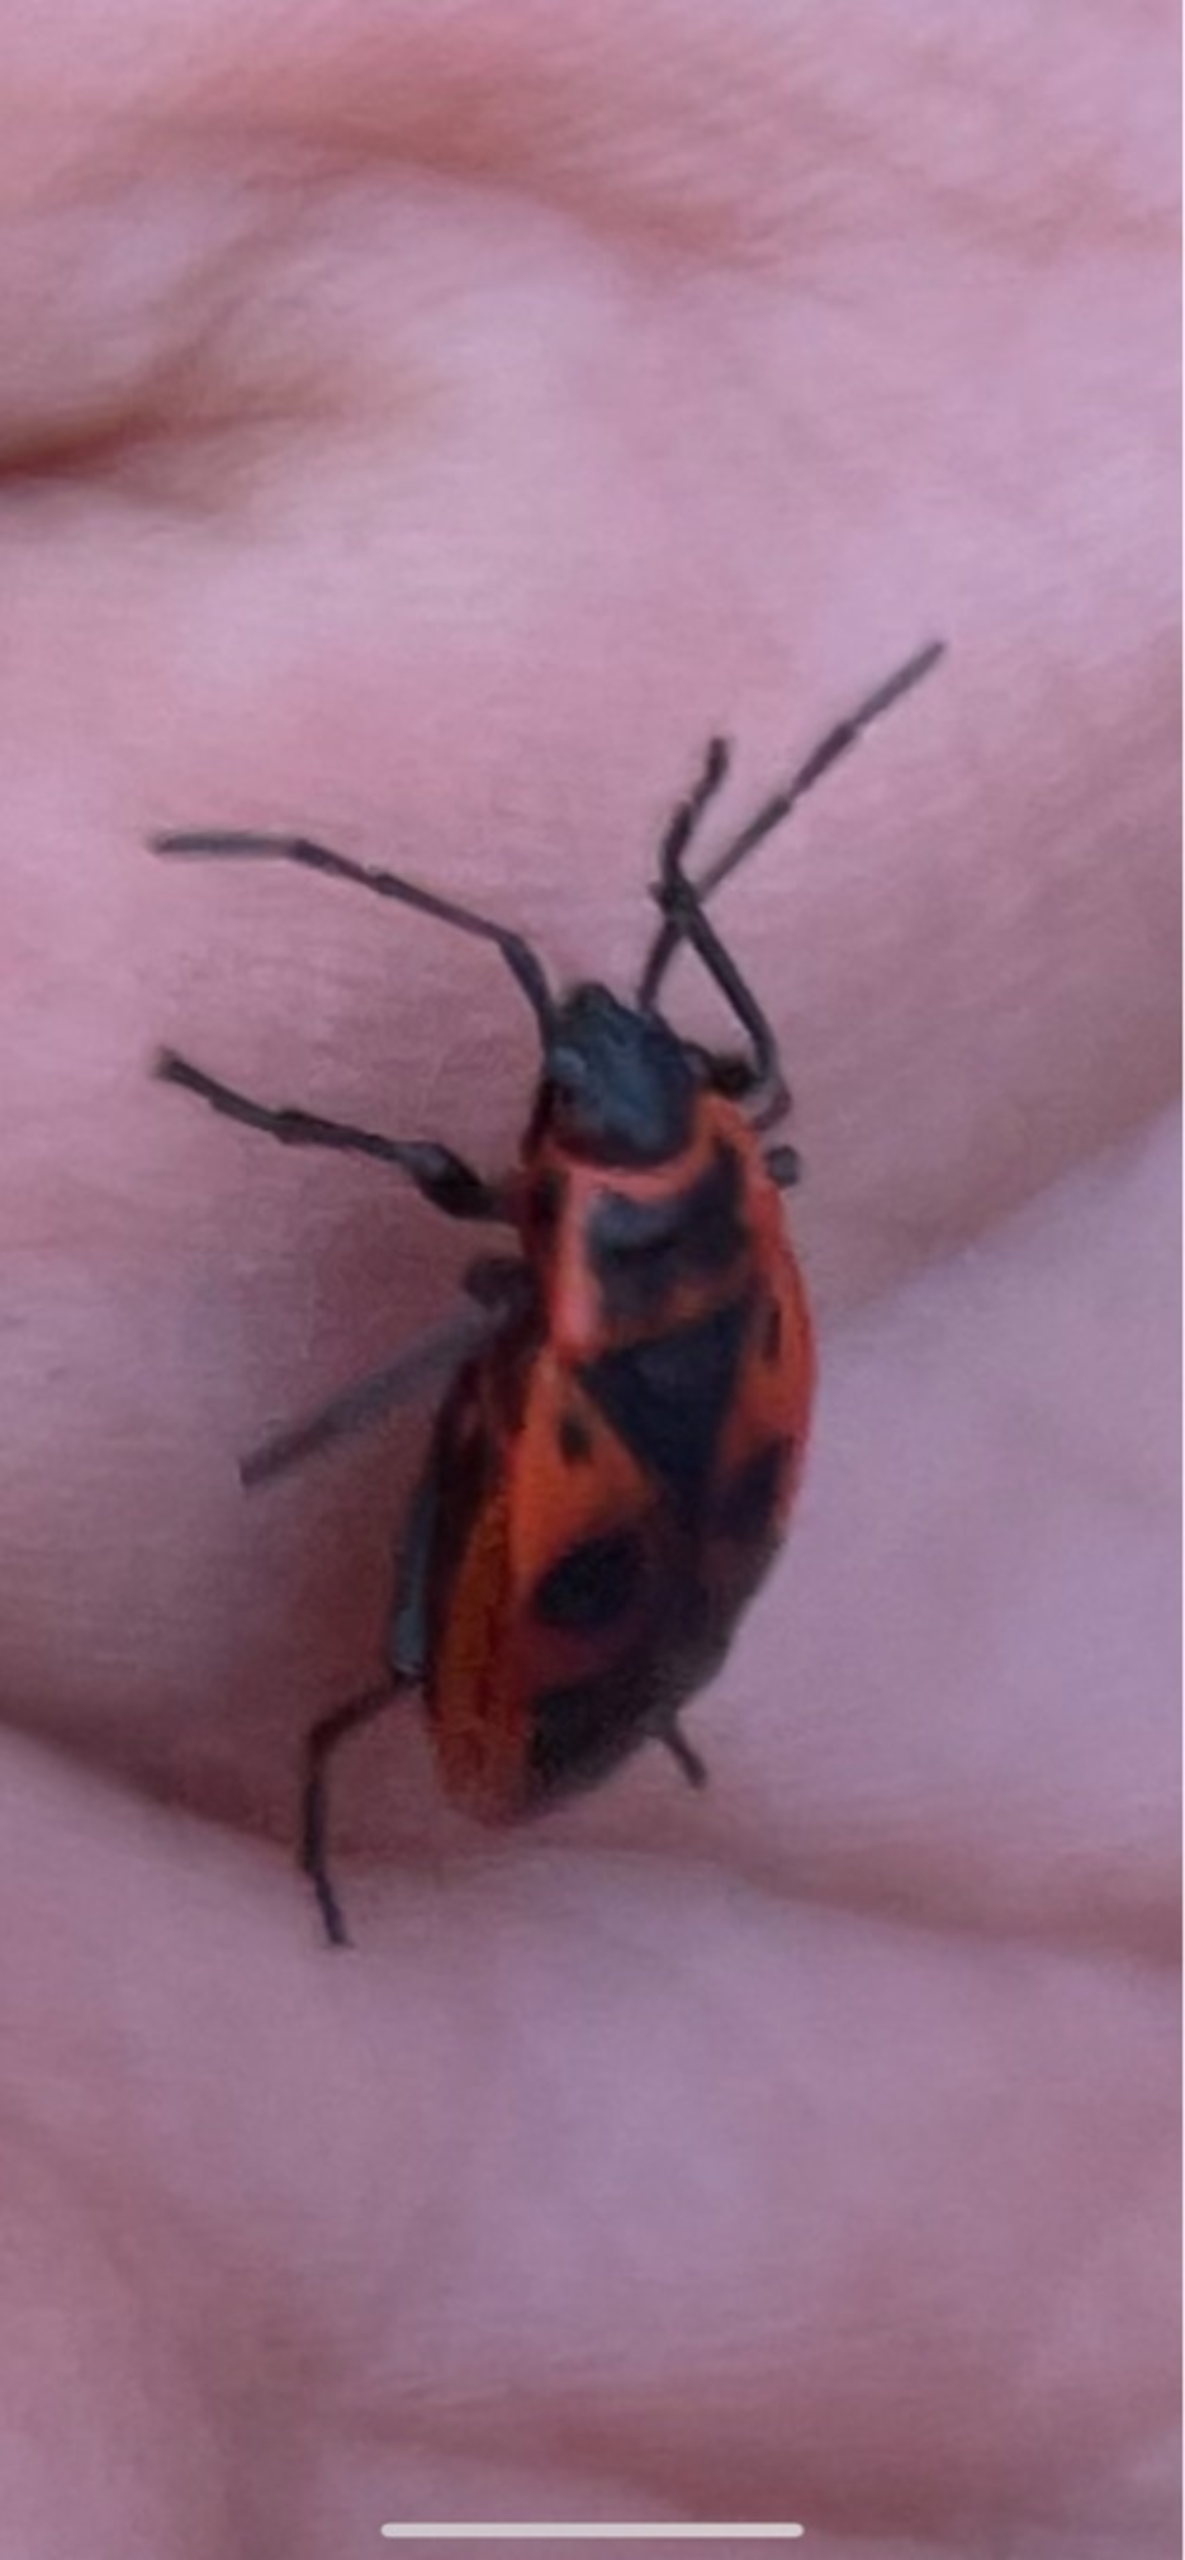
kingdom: Animalia
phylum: Arthropoda
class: Insecta
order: Hemiptera
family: Pyrrhocoridae
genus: Pyrrhocoris
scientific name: Pyrrhocoris apterus
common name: Ildtæge
